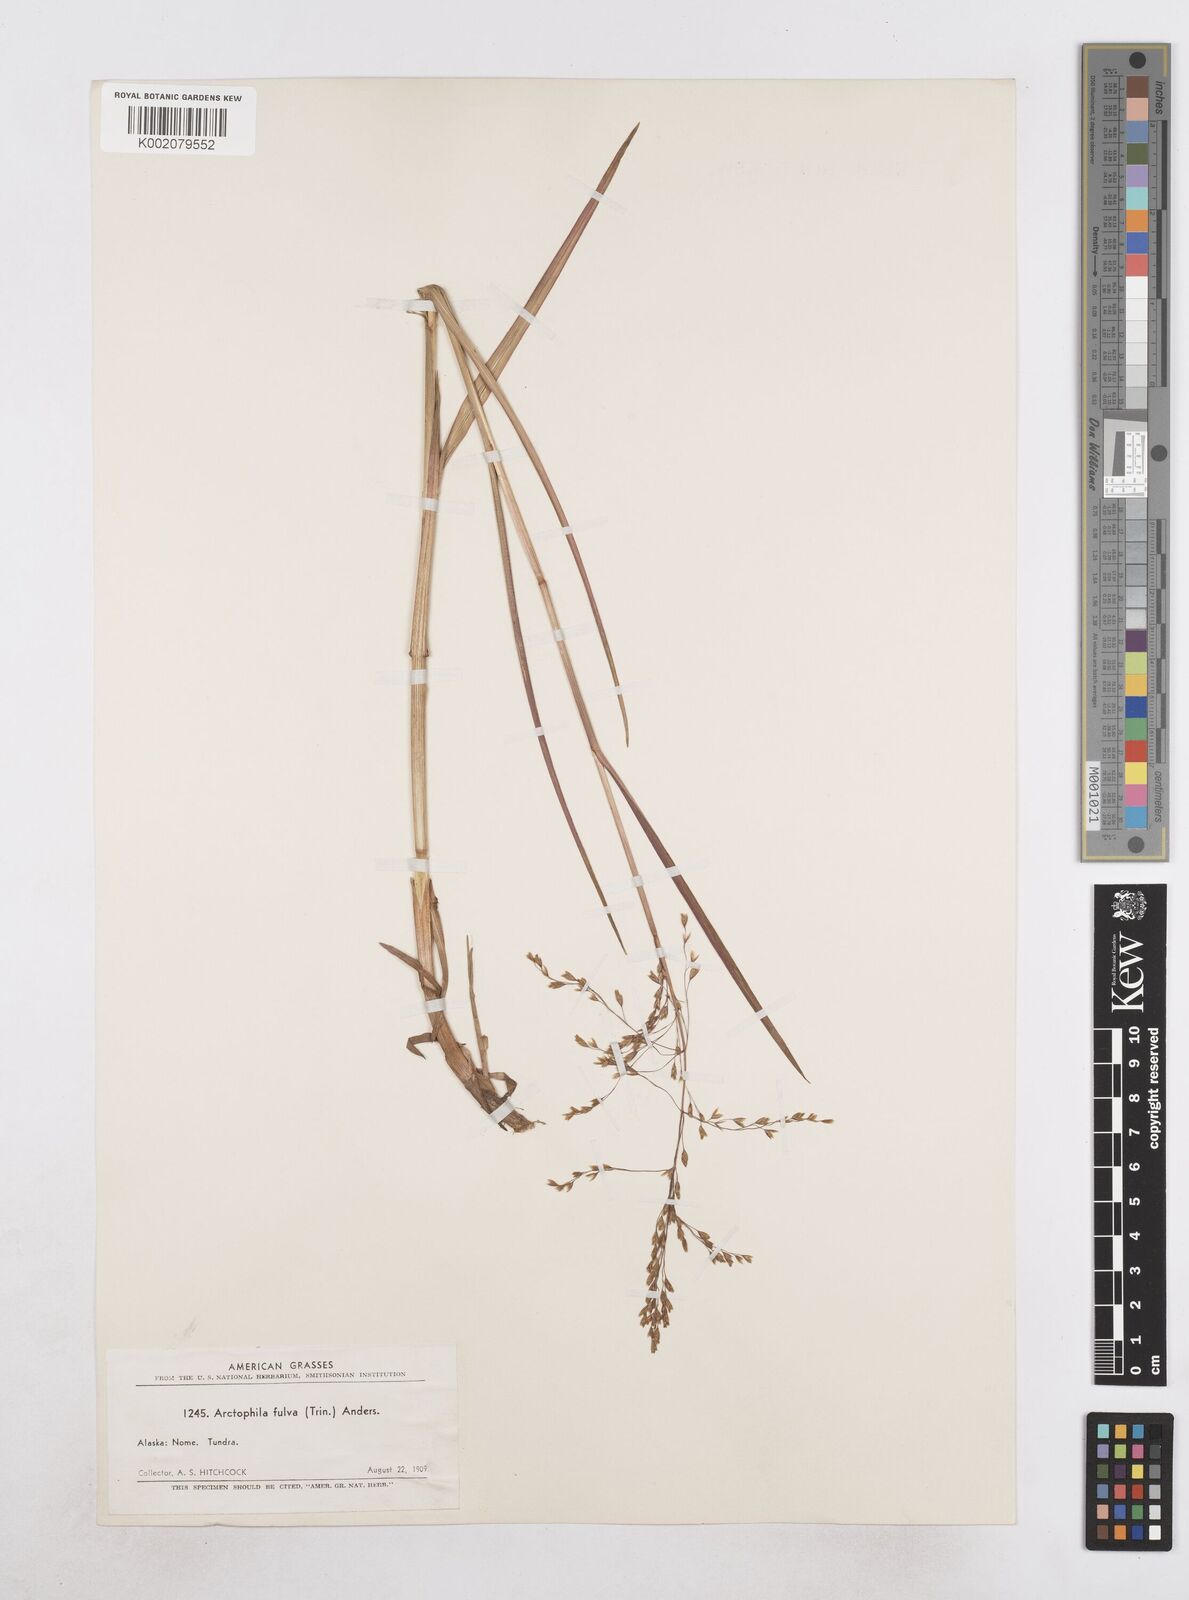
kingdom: Plantae
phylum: Tracheophyta
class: Liliopsida
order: Poales
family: Poaceae
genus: Dupontia
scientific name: Dupontia fulva
